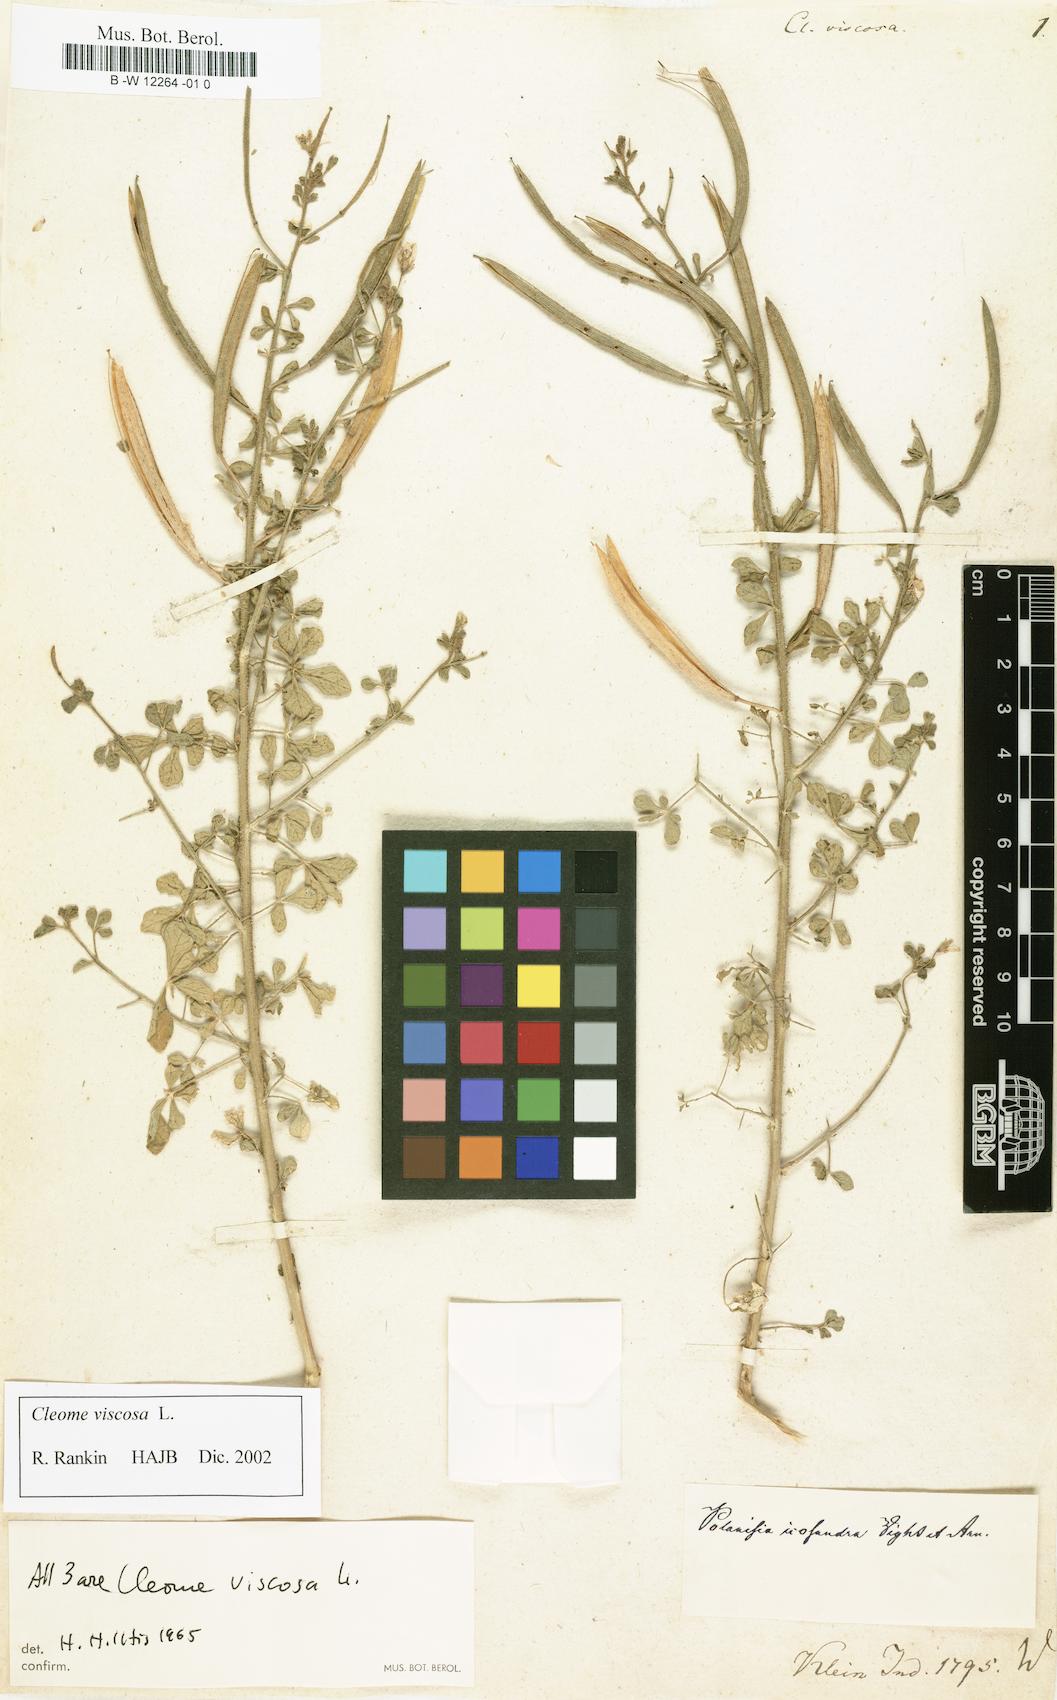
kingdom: Plantae
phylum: Tracheophyta
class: Magnoliopsida
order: Brassicales
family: Cleomaceae
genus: Arivela
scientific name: Arivela viscosa
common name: Asian spiderflower
